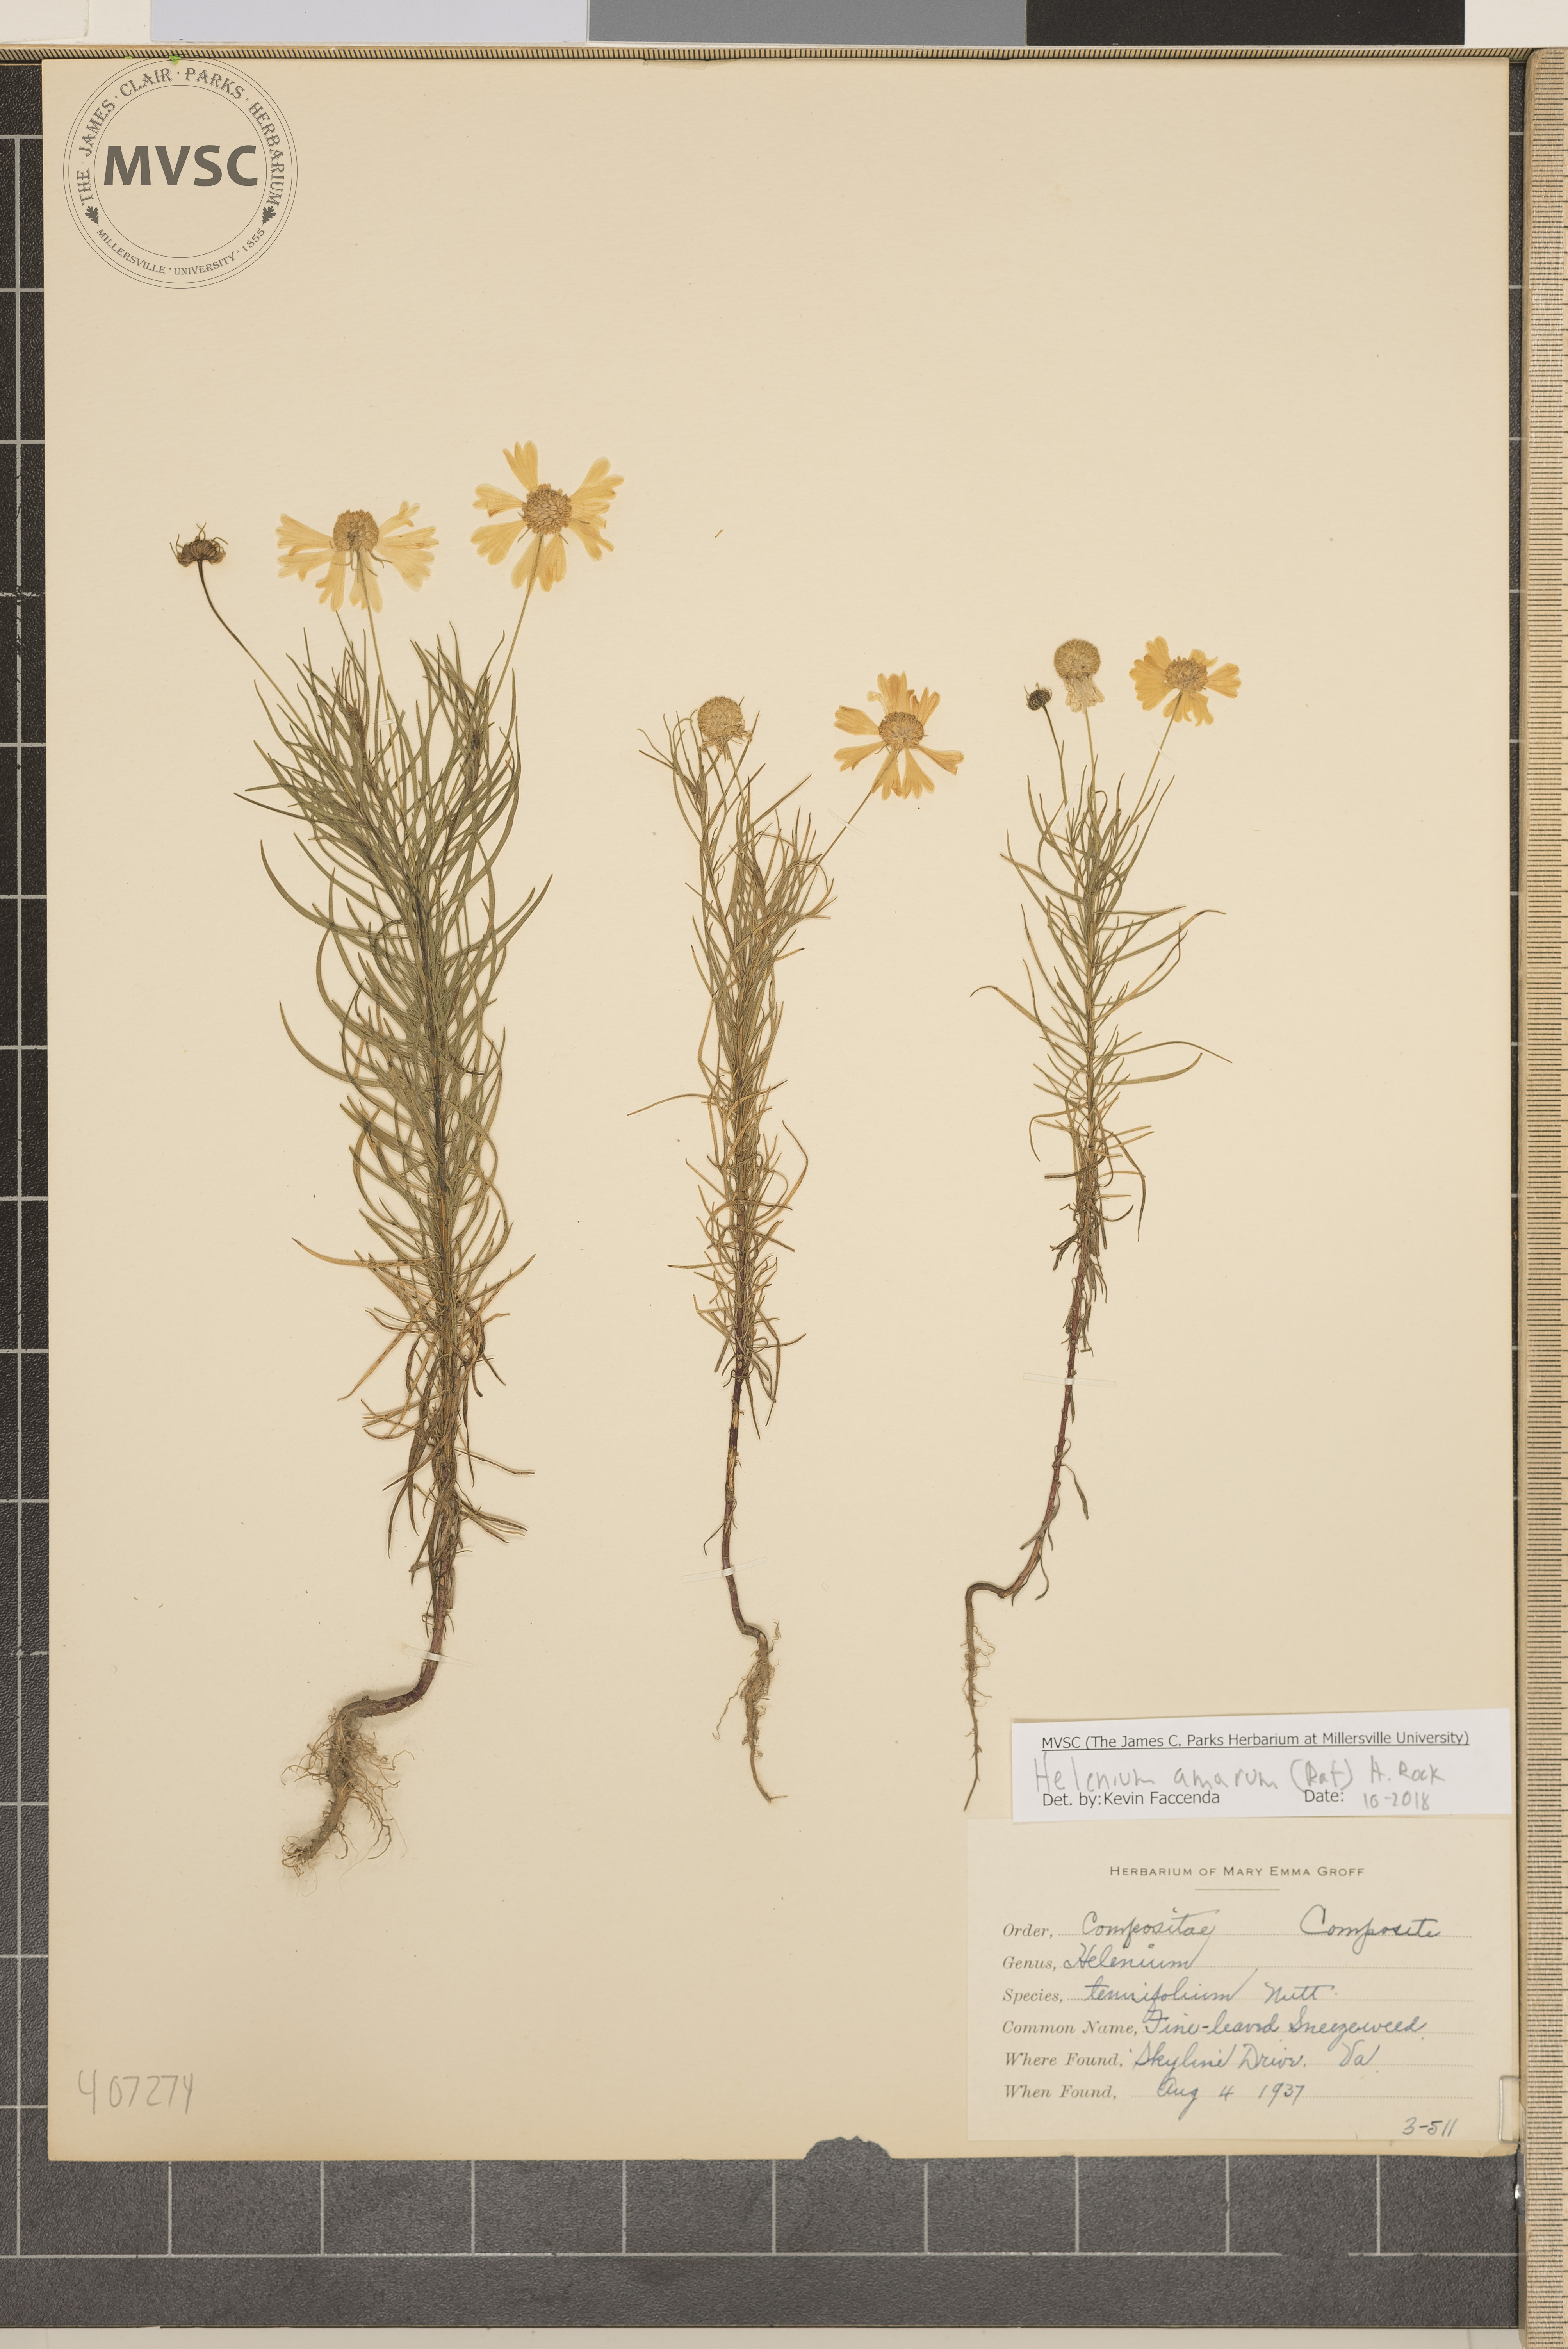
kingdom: Plantae
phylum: Tracheophyta
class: Magnoliopsida
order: Asterales
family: Asteraceae
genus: Helenium
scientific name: Helenium amarum
